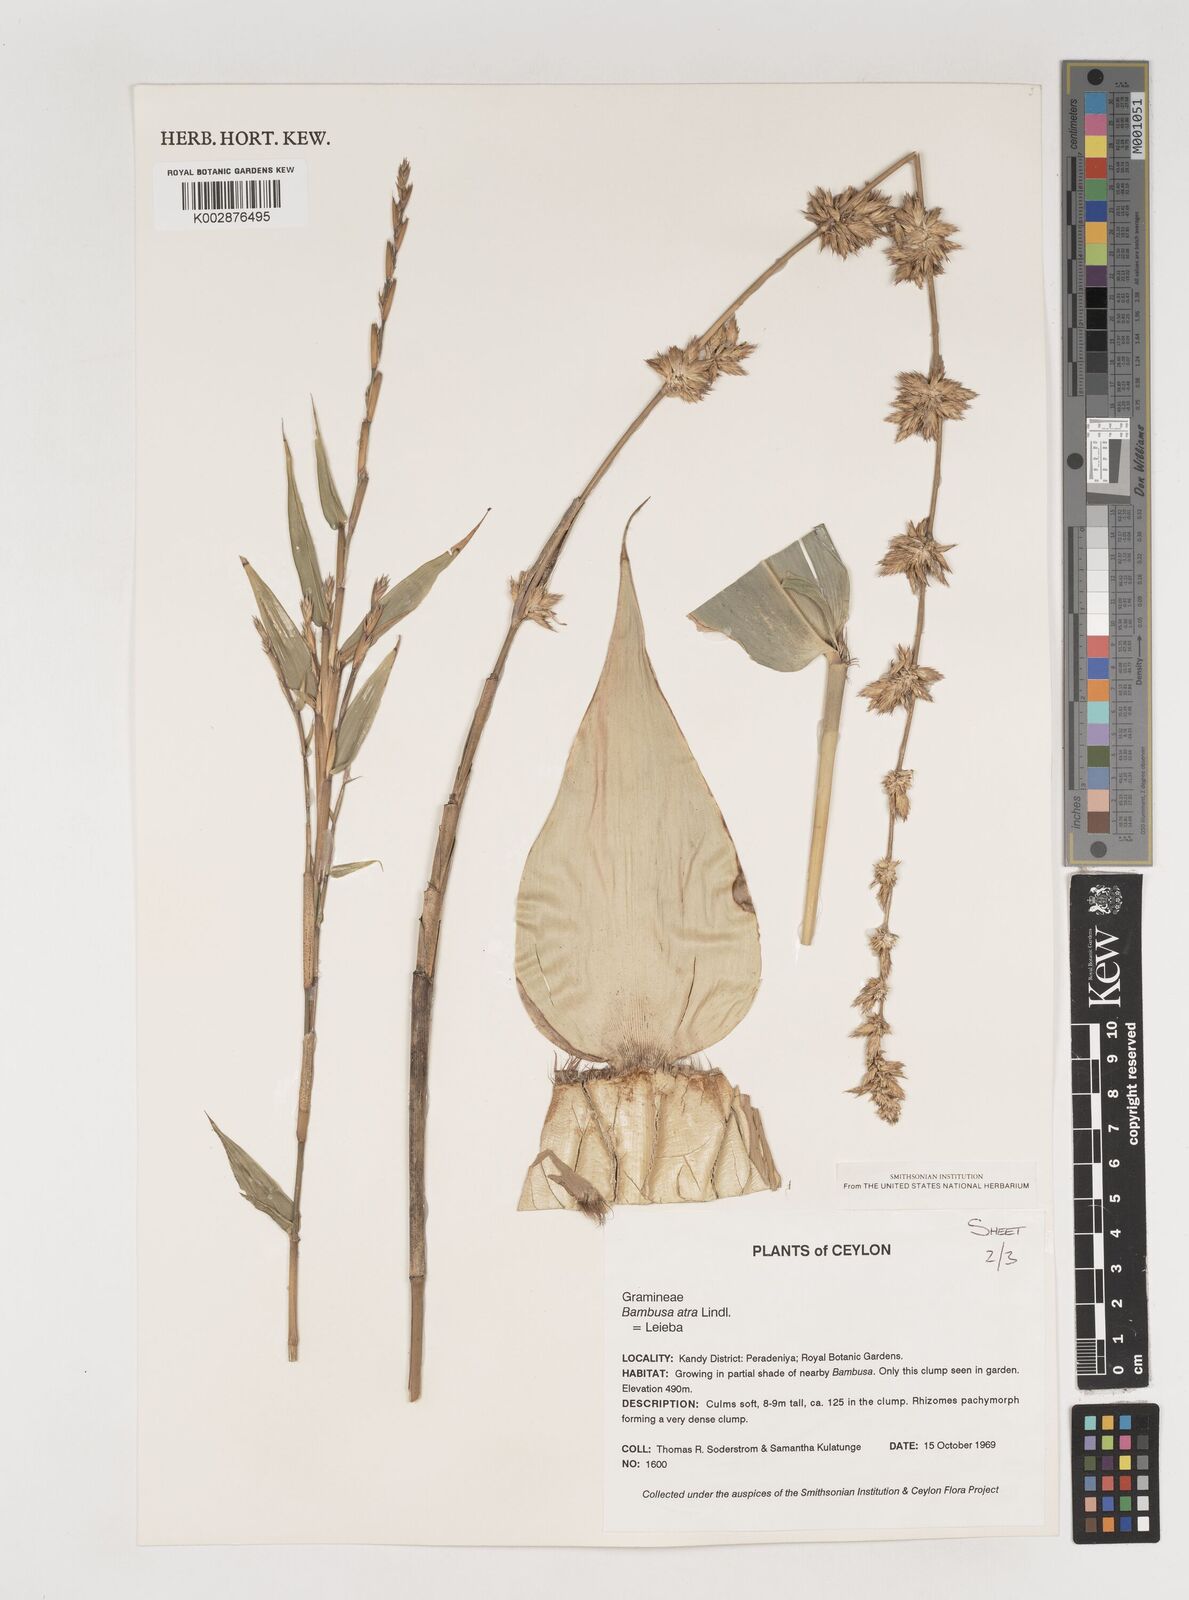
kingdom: Plantae
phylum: Tracheophyta
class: Liliopsida
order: Poales
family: Poaceae
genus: Bambusa
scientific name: Bambusa
